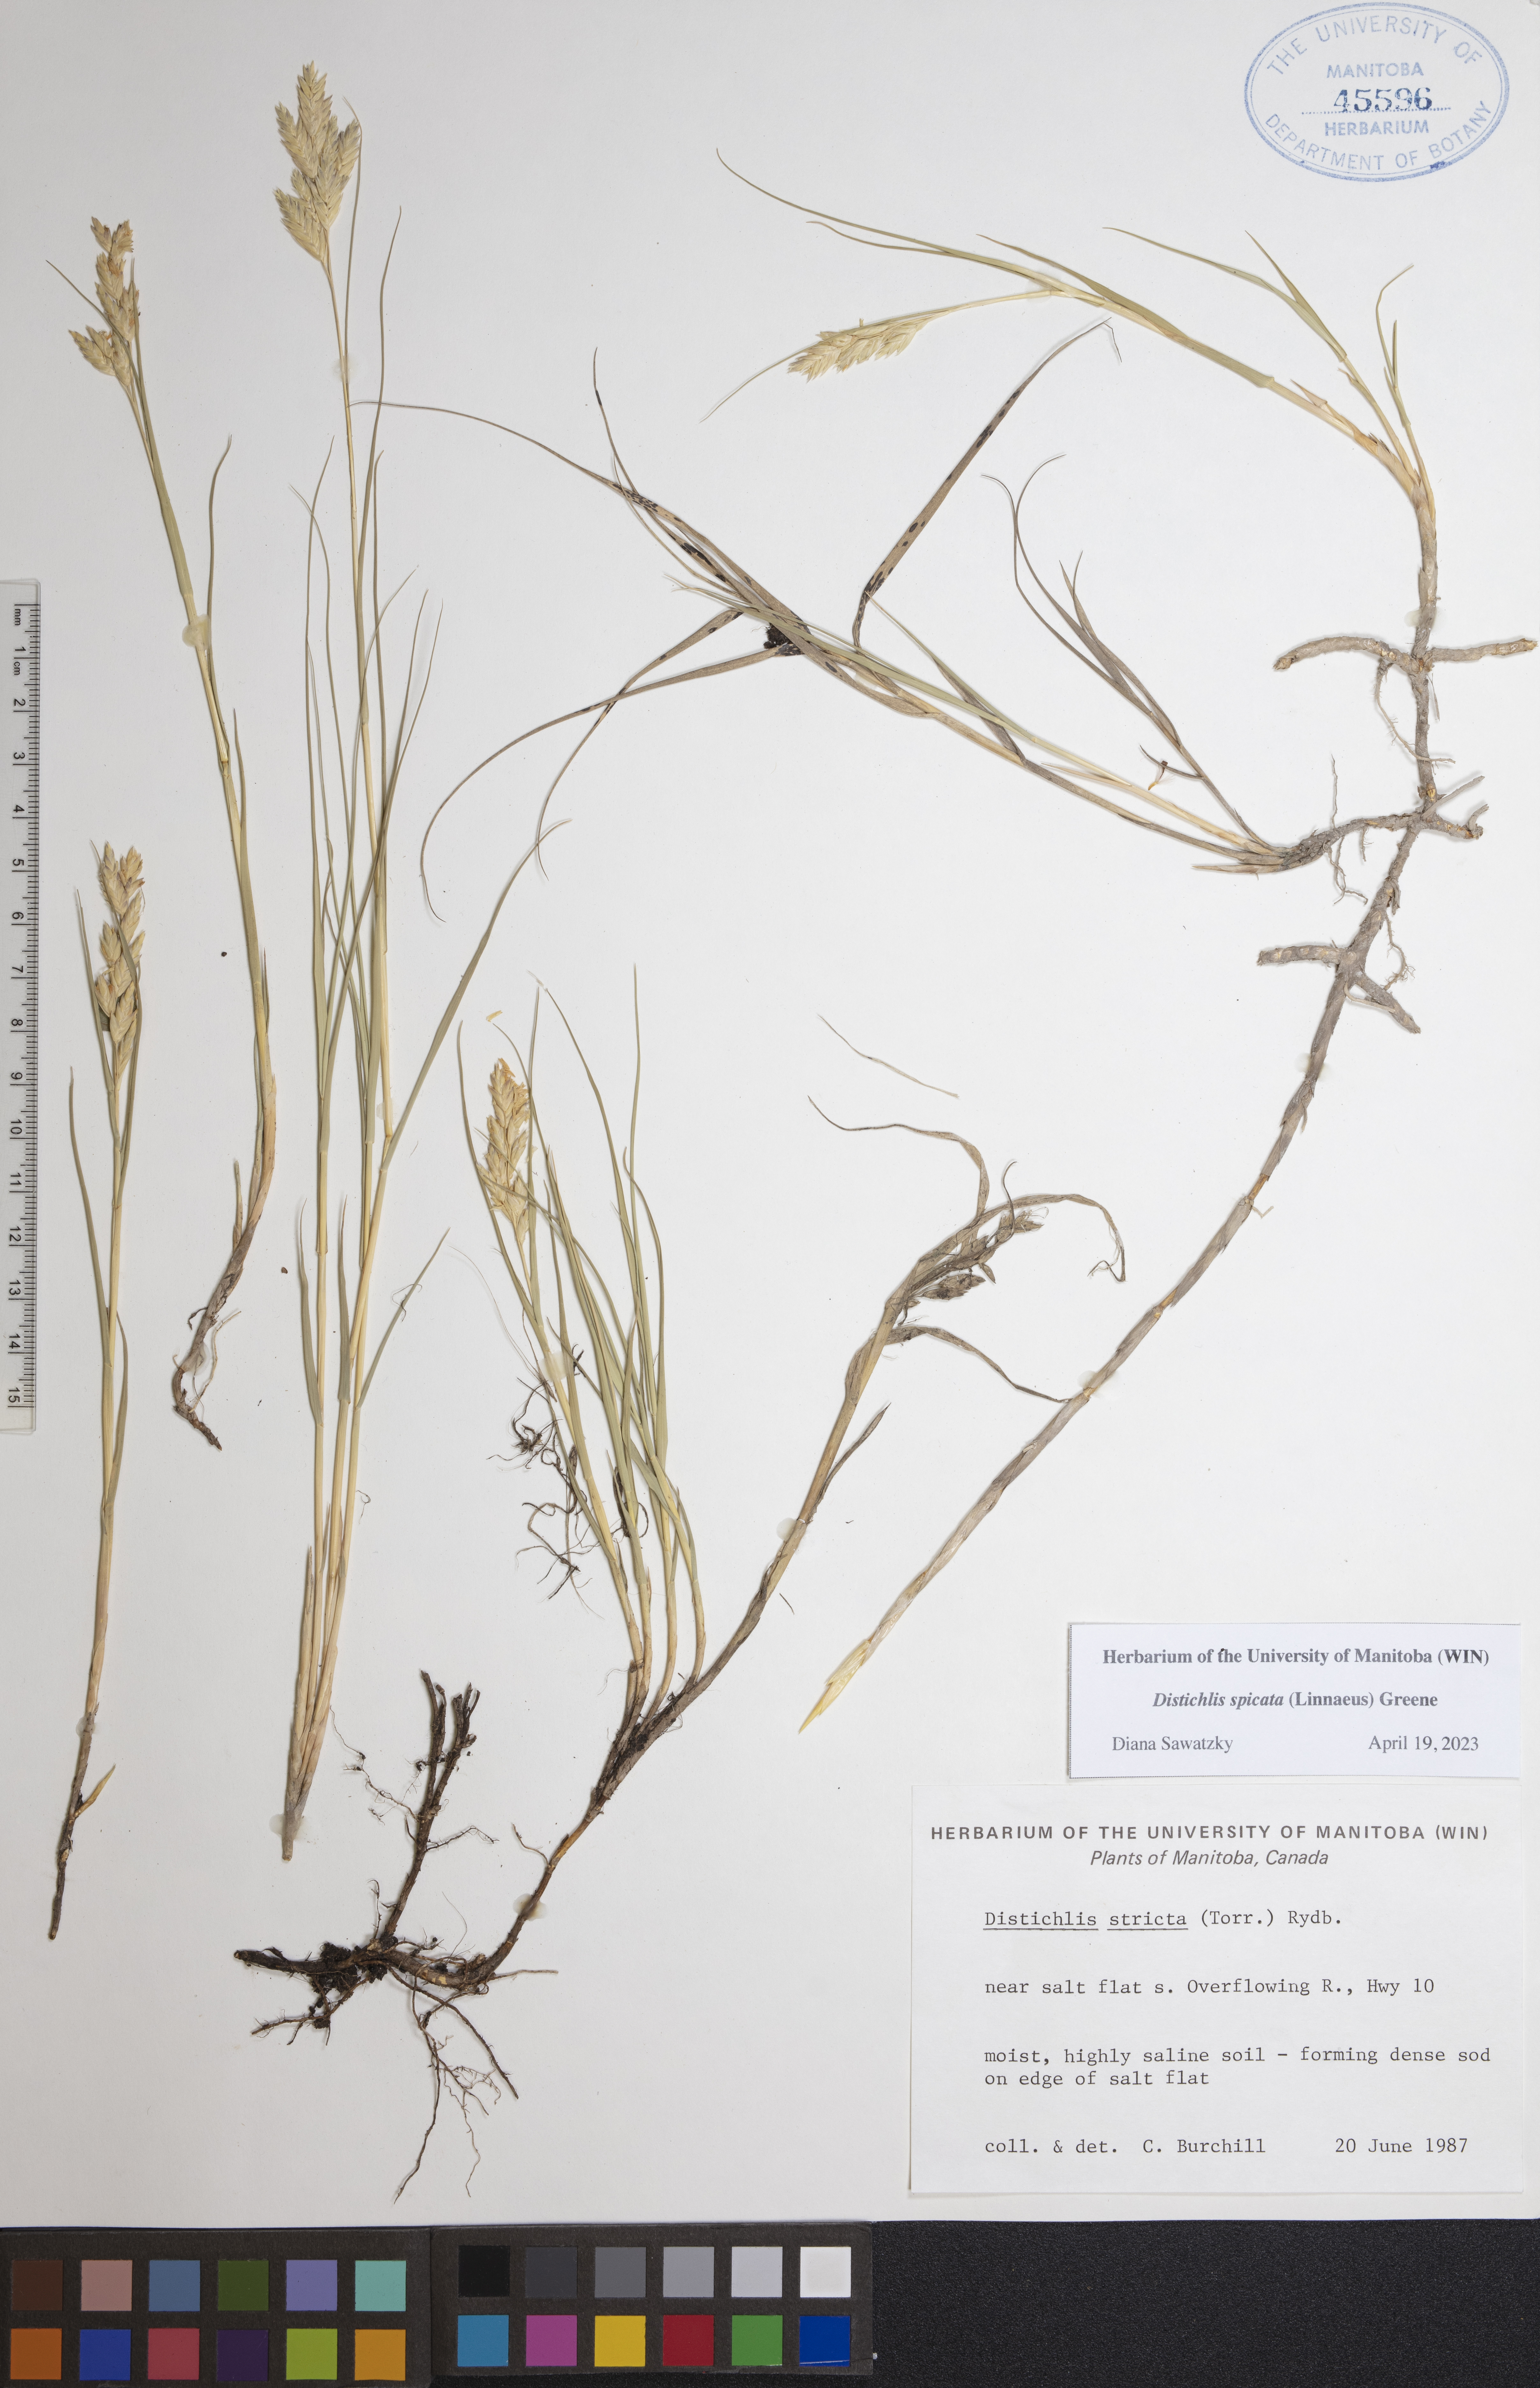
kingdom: Plantae
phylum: Tracheophyta
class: Liliopsida
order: Poales
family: Poaceae
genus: Distichlis
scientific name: Distichlis spicata
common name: Saltgrass
